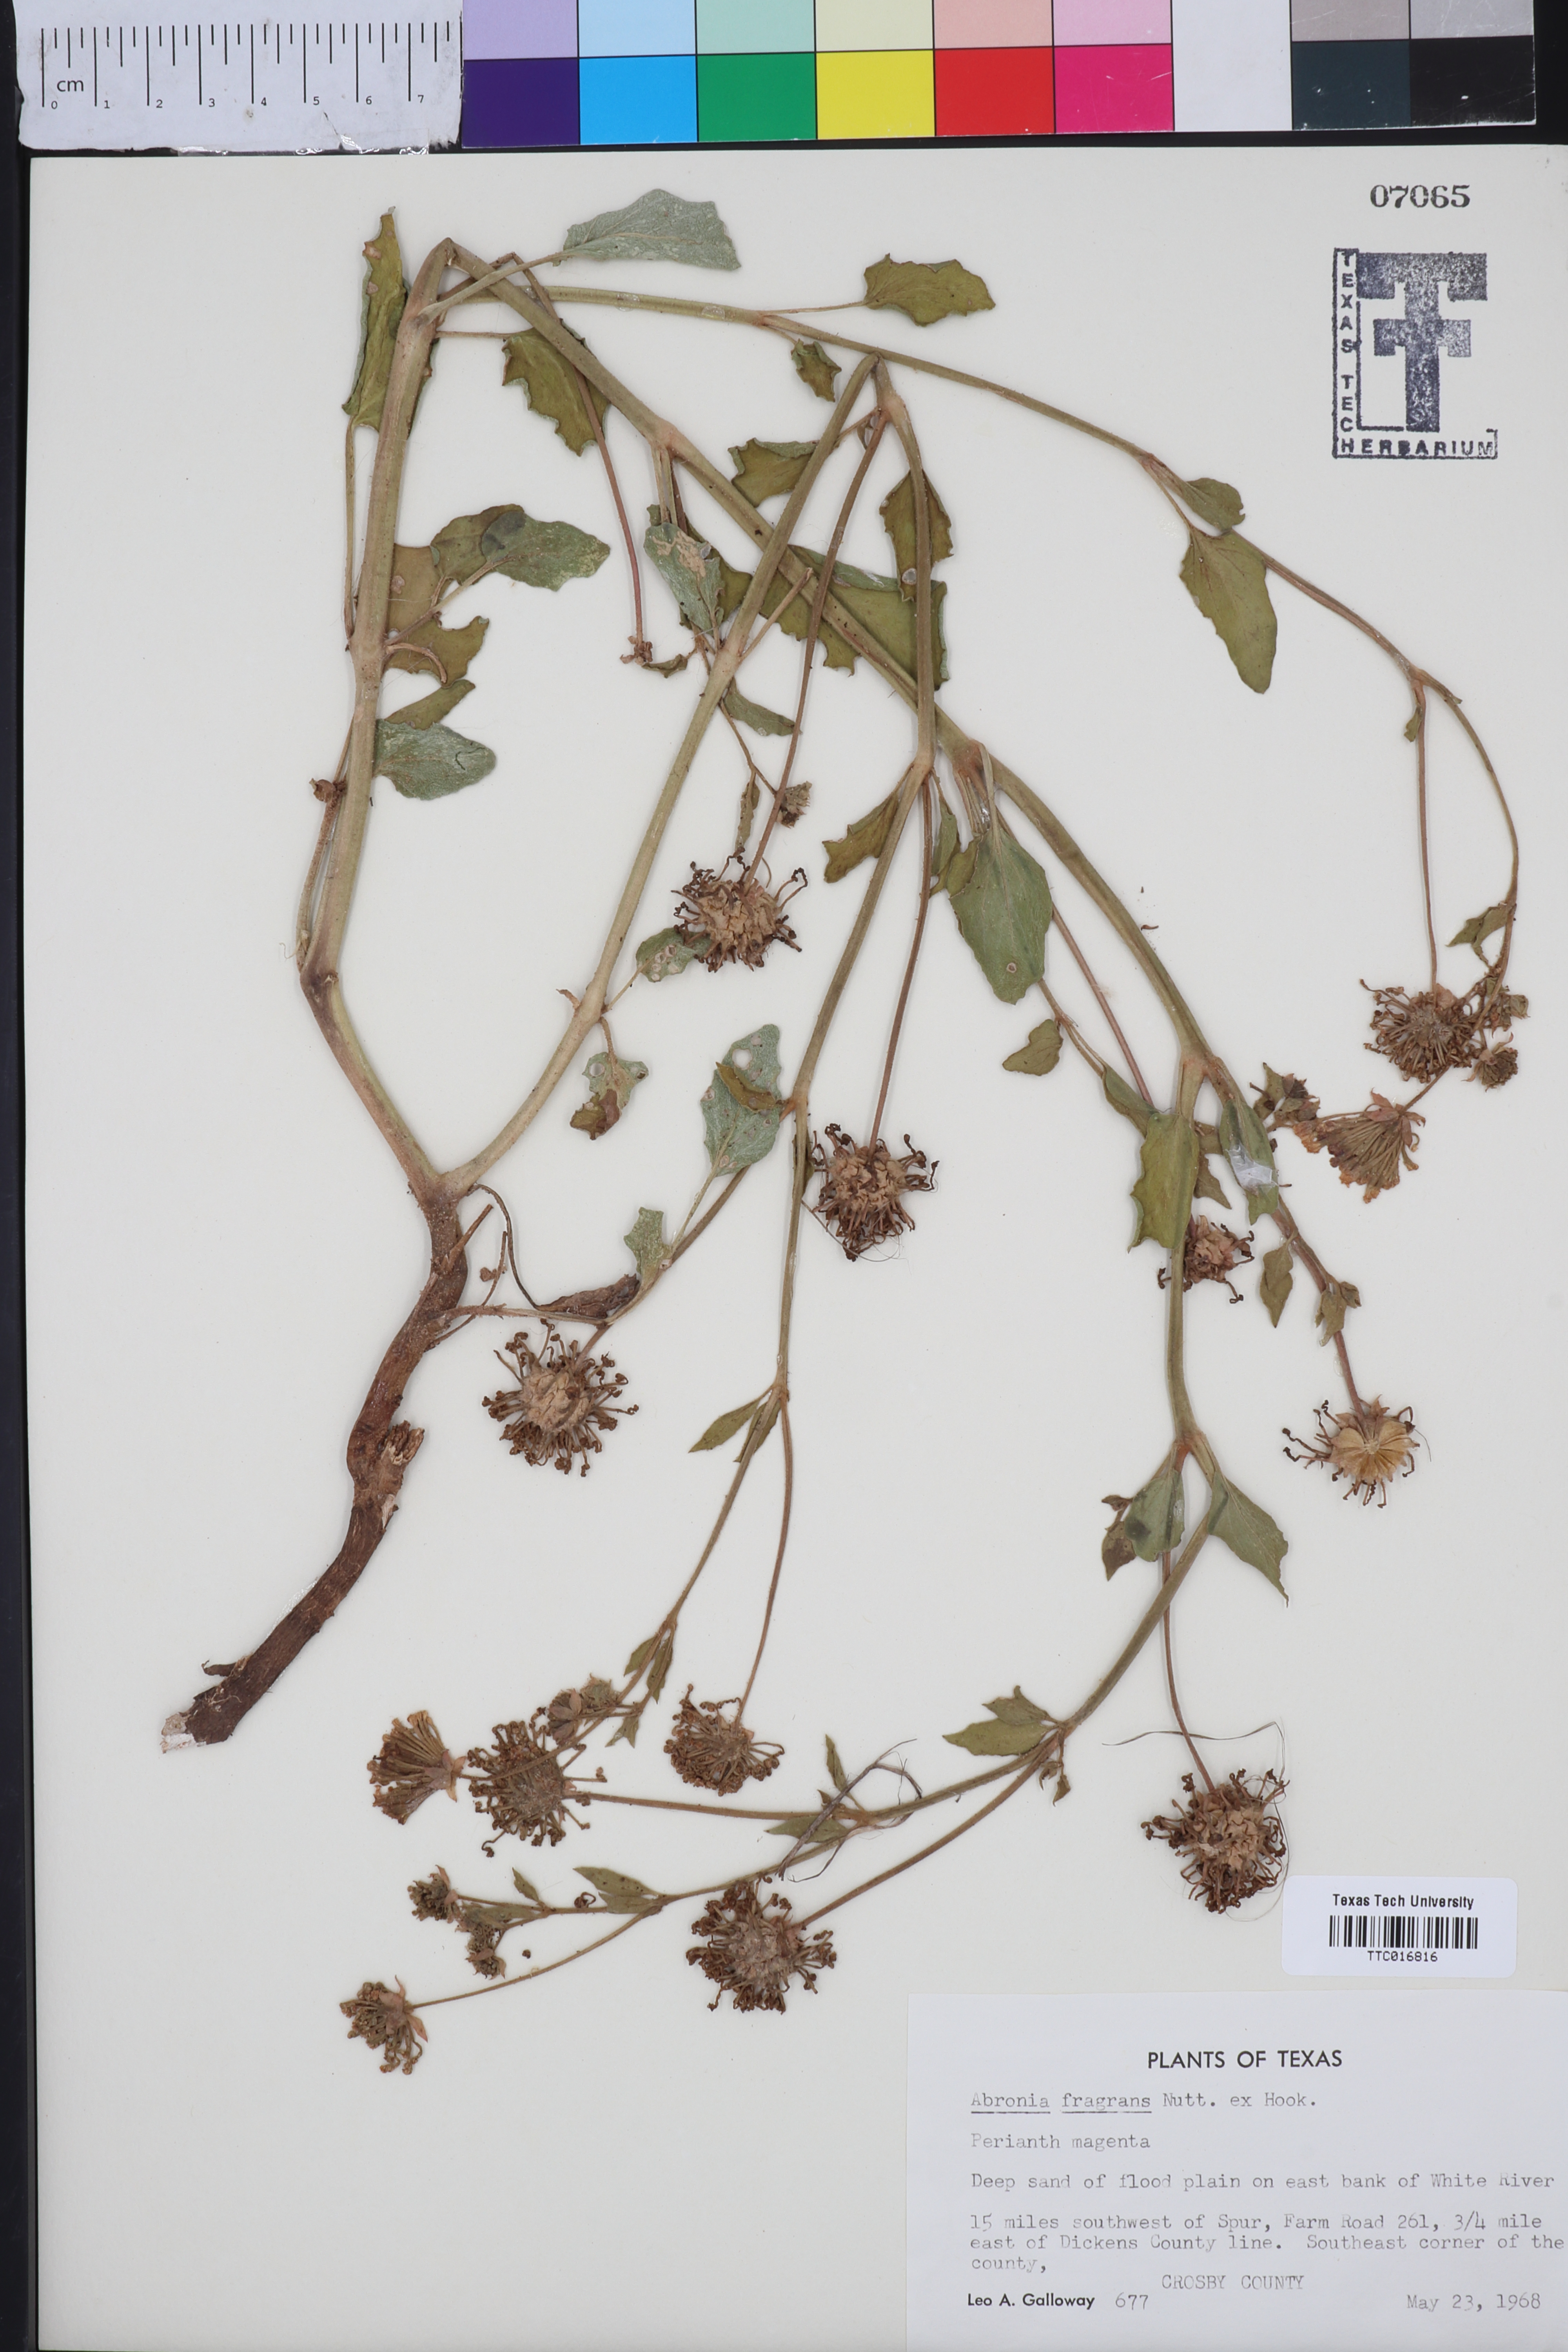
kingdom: Plantae
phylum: Tracheophyta
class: Magnoliopsida
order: Caryophyllales
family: Nyctaginaceae
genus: Abronia
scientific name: Abronia fragrans
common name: Fragrant sand-verbena
